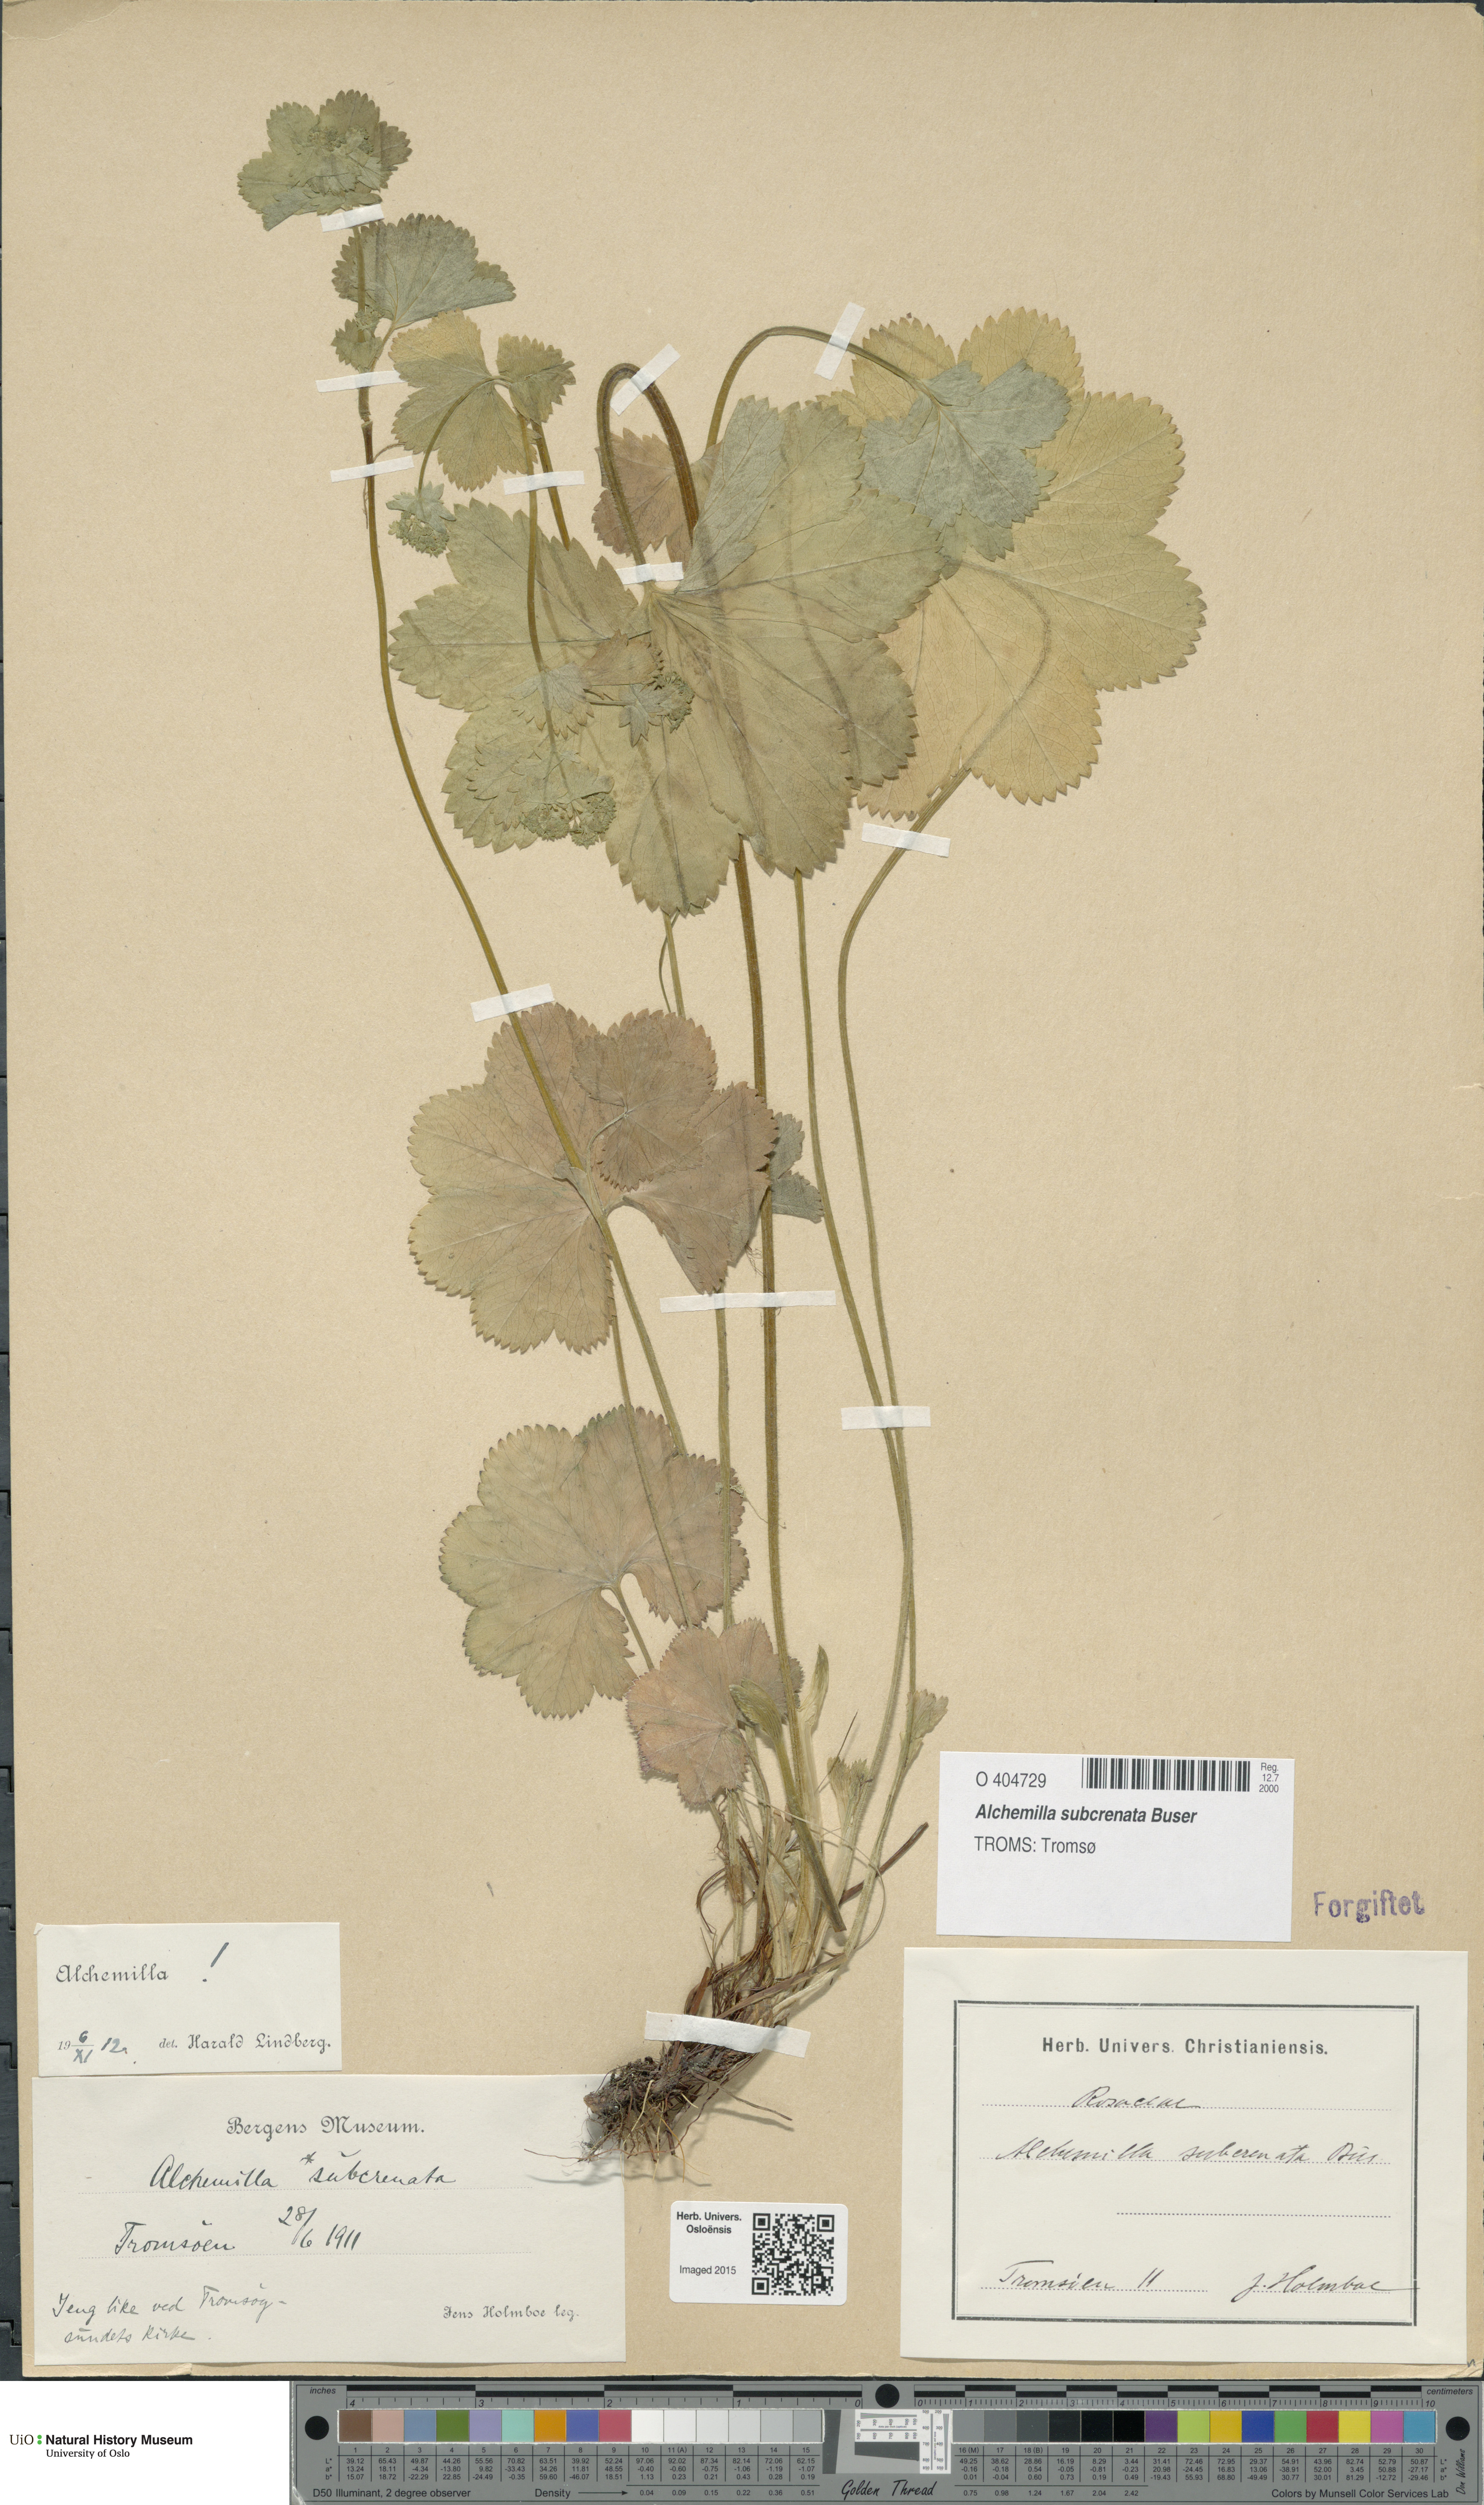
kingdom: Plantae
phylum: Tracheophyta
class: Magnoliopsida
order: Rosales
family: Rosaceae
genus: Alchemilla
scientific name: Alchemilla subcrenata
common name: Broadtooth lady's mantle
